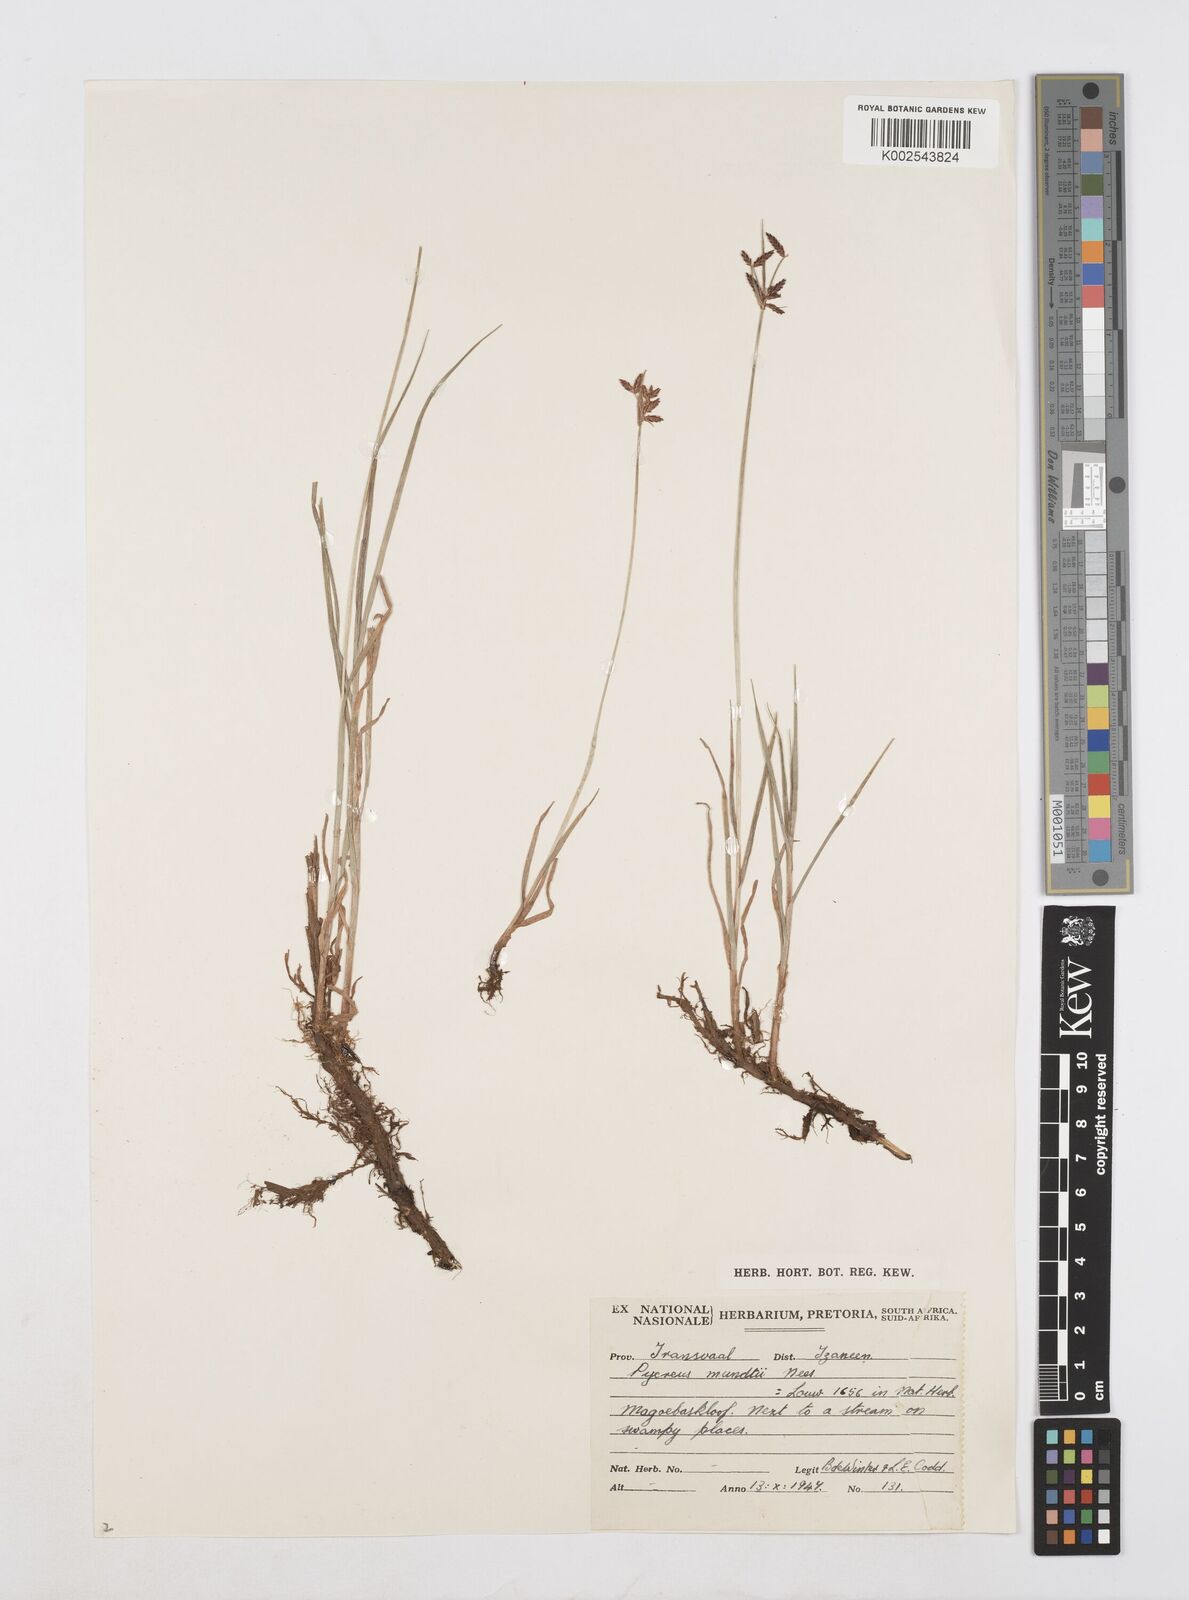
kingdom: Plantae
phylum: Tracheophyta
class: Liliopsida
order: Poales
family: Cyperaceae
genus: Cyperus
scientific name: Cyperus mundii
